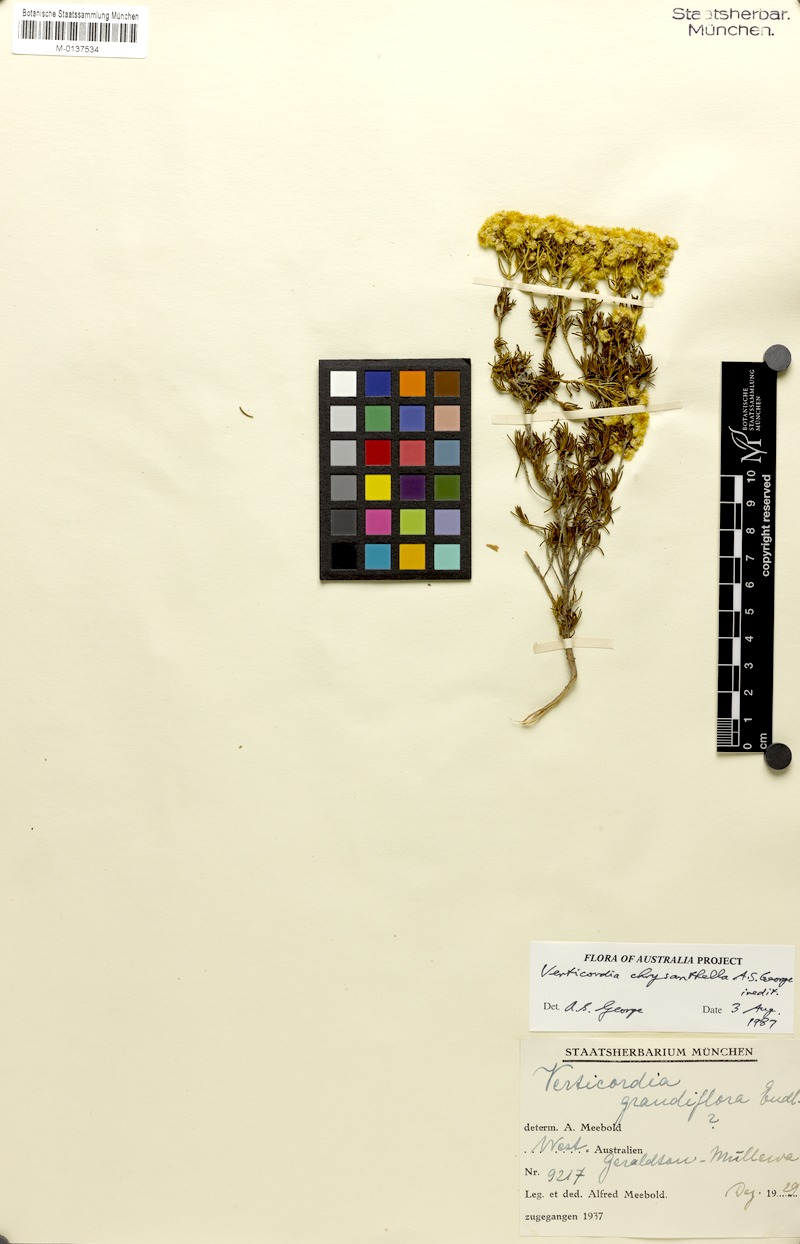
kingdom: Plantae
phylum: Tracheophyta
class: Magnoliopsida
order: Myrtales
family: Myrtaceae
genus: Verticordia
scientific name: Verticordia chrysanthella
